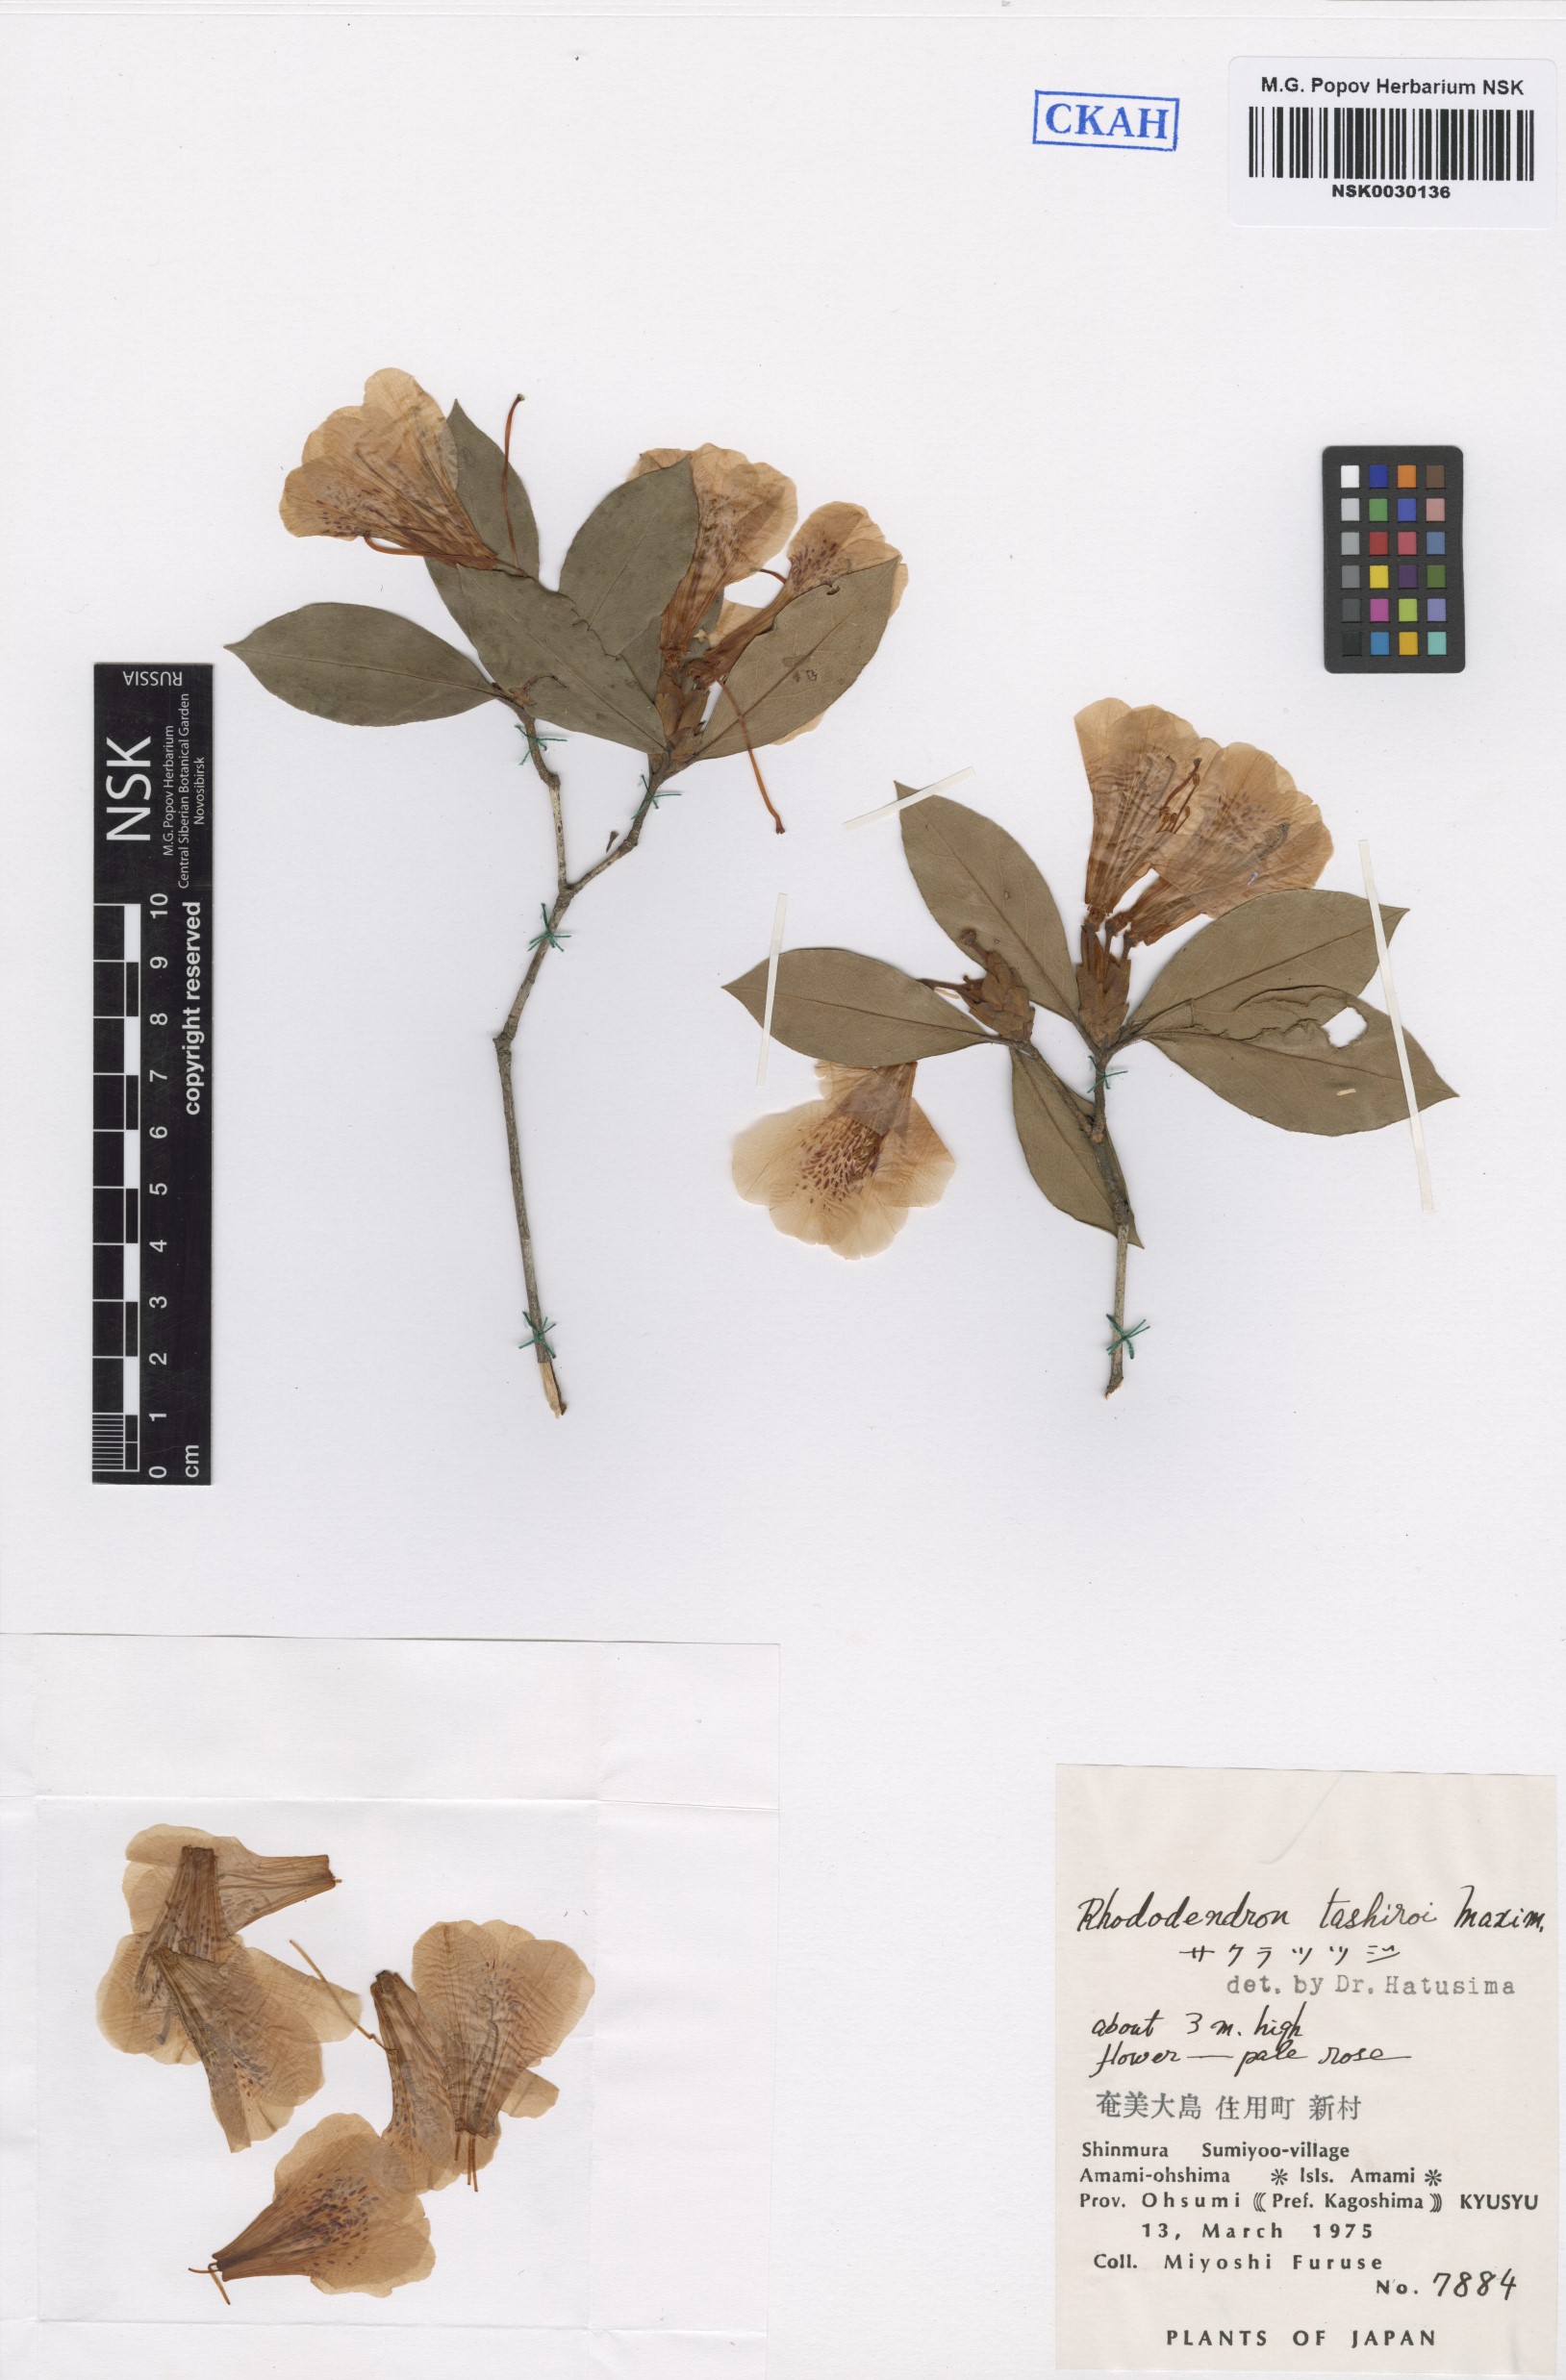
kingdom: Plantae
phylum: Tracheophyta
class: Magnoliopsida
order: Ericales
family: Ericaceae
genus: Rhododendron
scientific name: Rhododendron tashiroi
